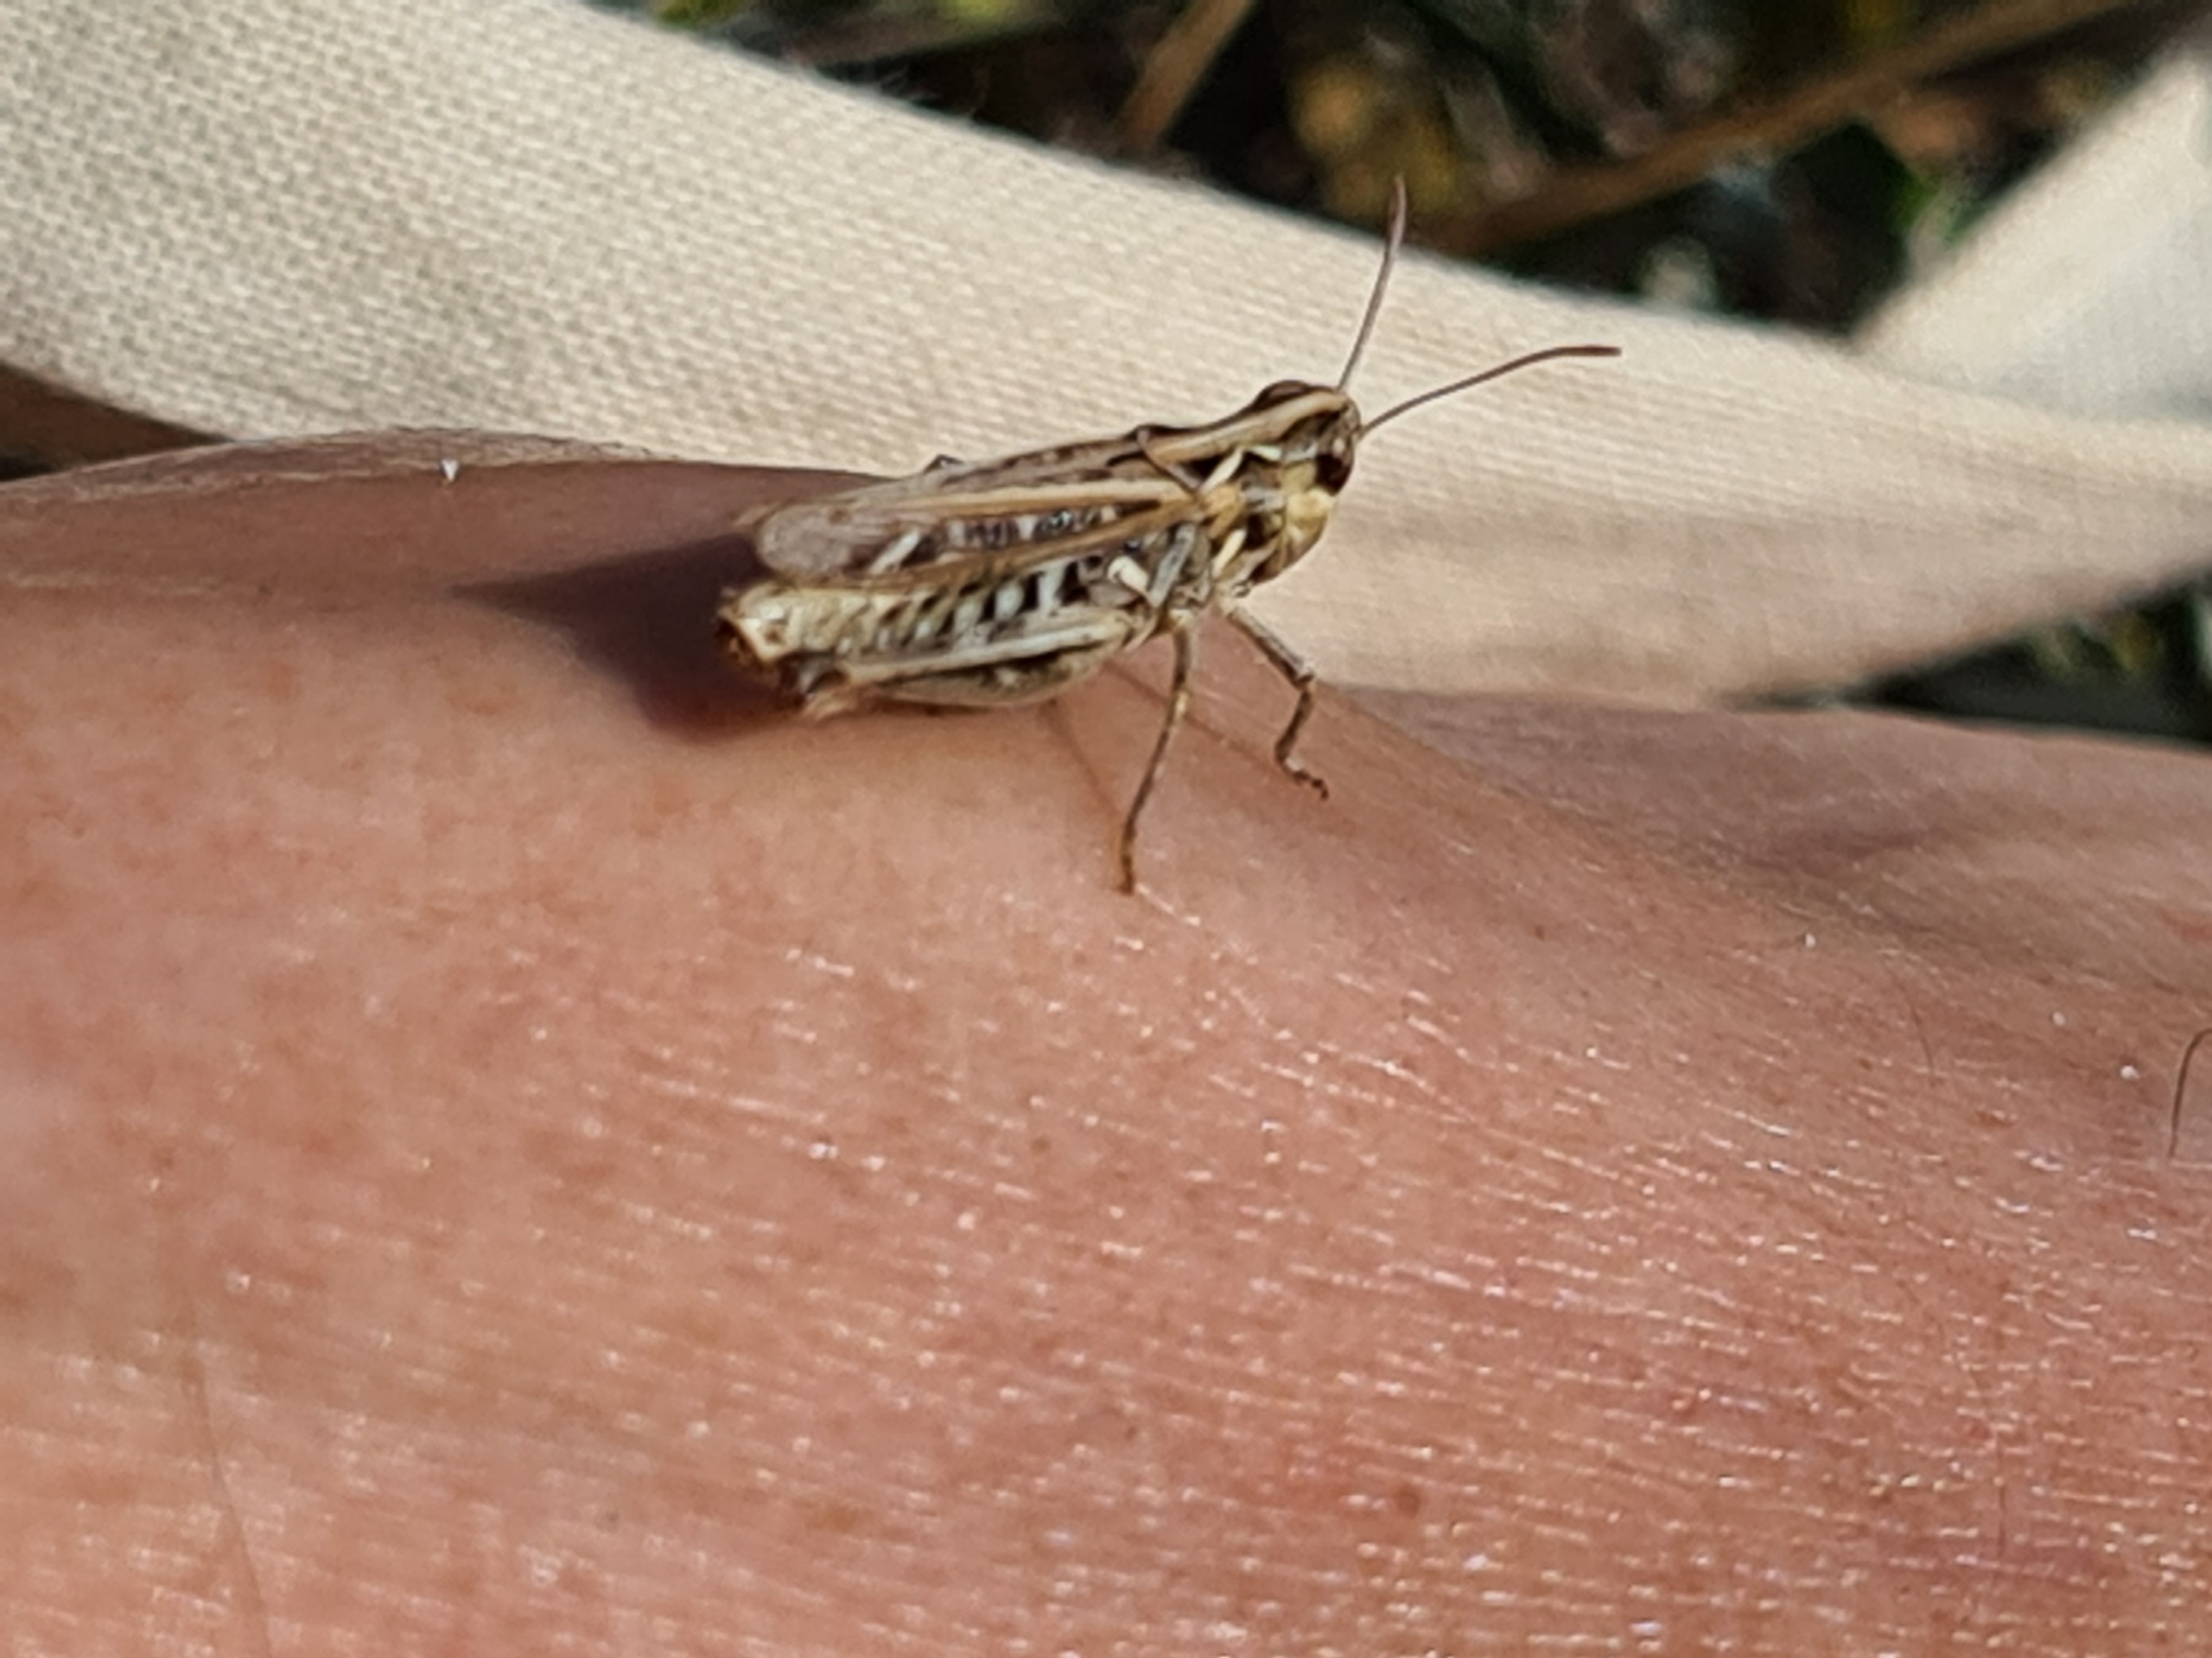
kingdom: Animalia
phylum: Arthropoda
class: Insecta
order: Orthoptera
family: Acrididae
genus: Myrmeleotettix
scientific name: Myrmeleotettix maculatus
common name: Køllegræshoppe
